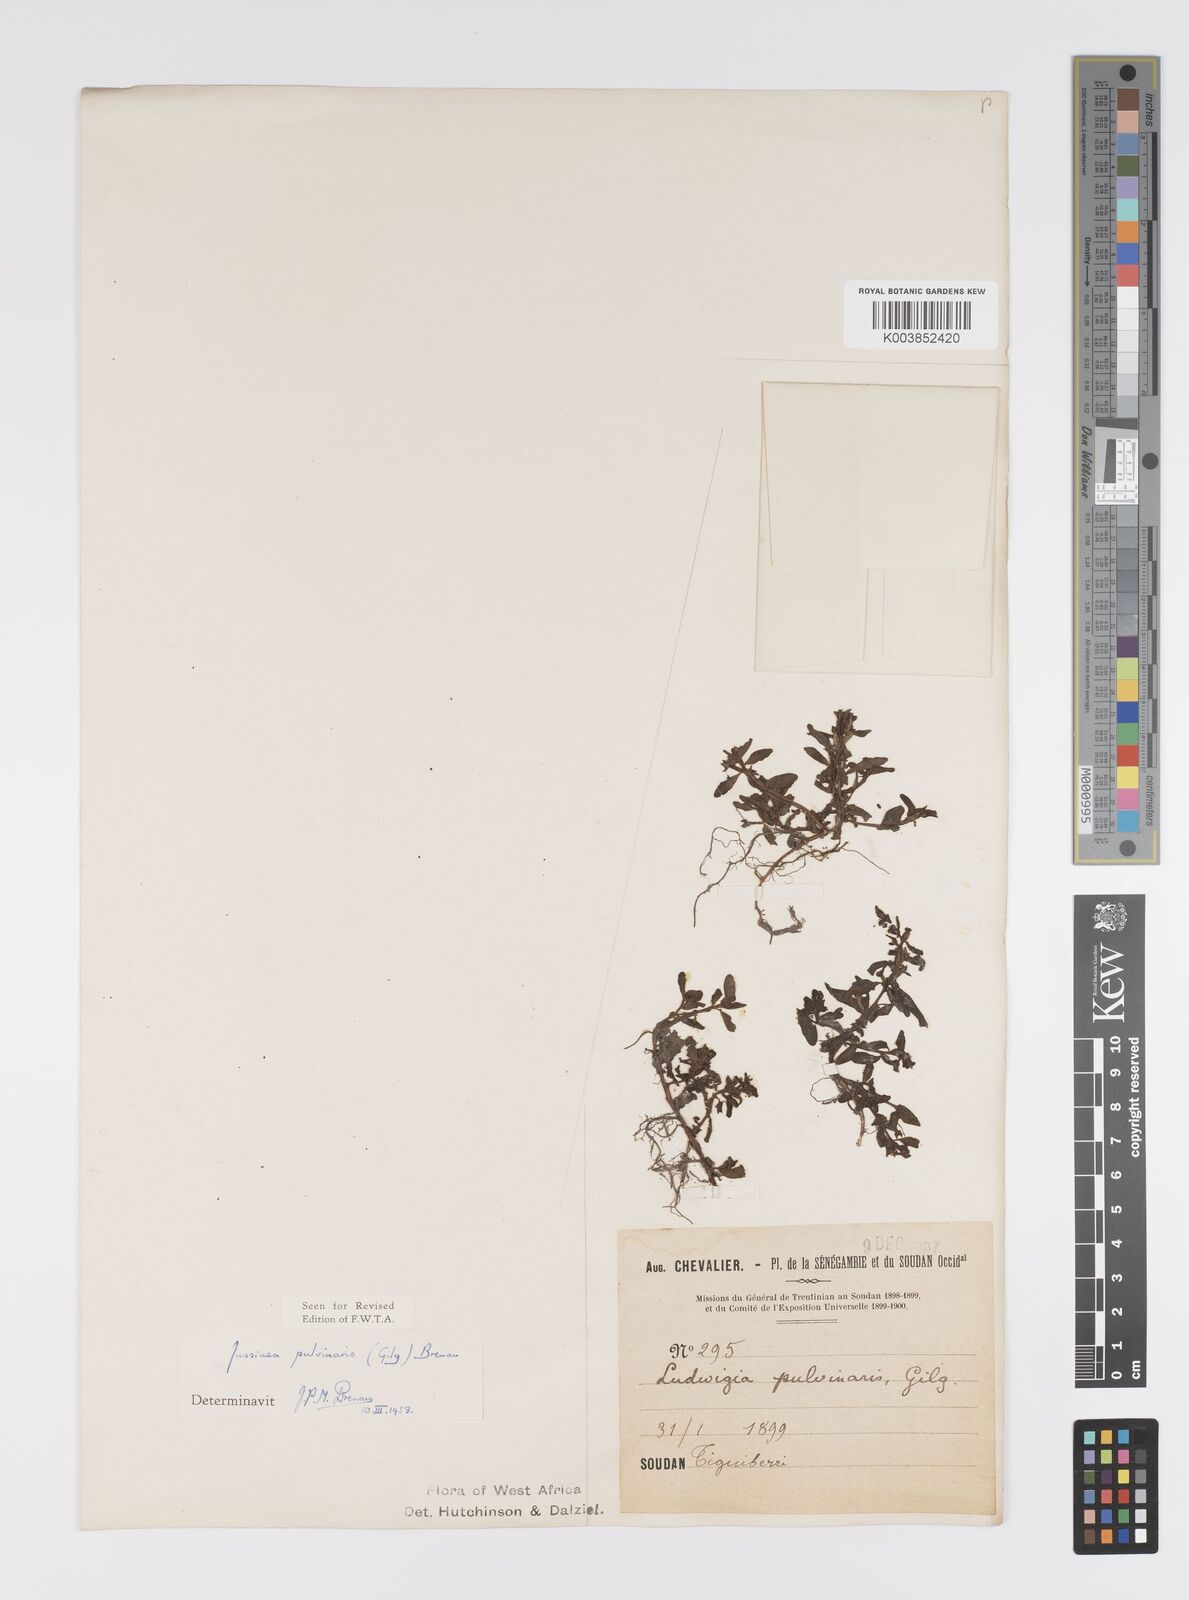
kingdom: Plantae
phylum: Tracheophyta
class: Magnoliopsida
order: Myrtales
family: Onagraceae
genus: Ludwigia
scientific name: Ludwigia senegalensis
